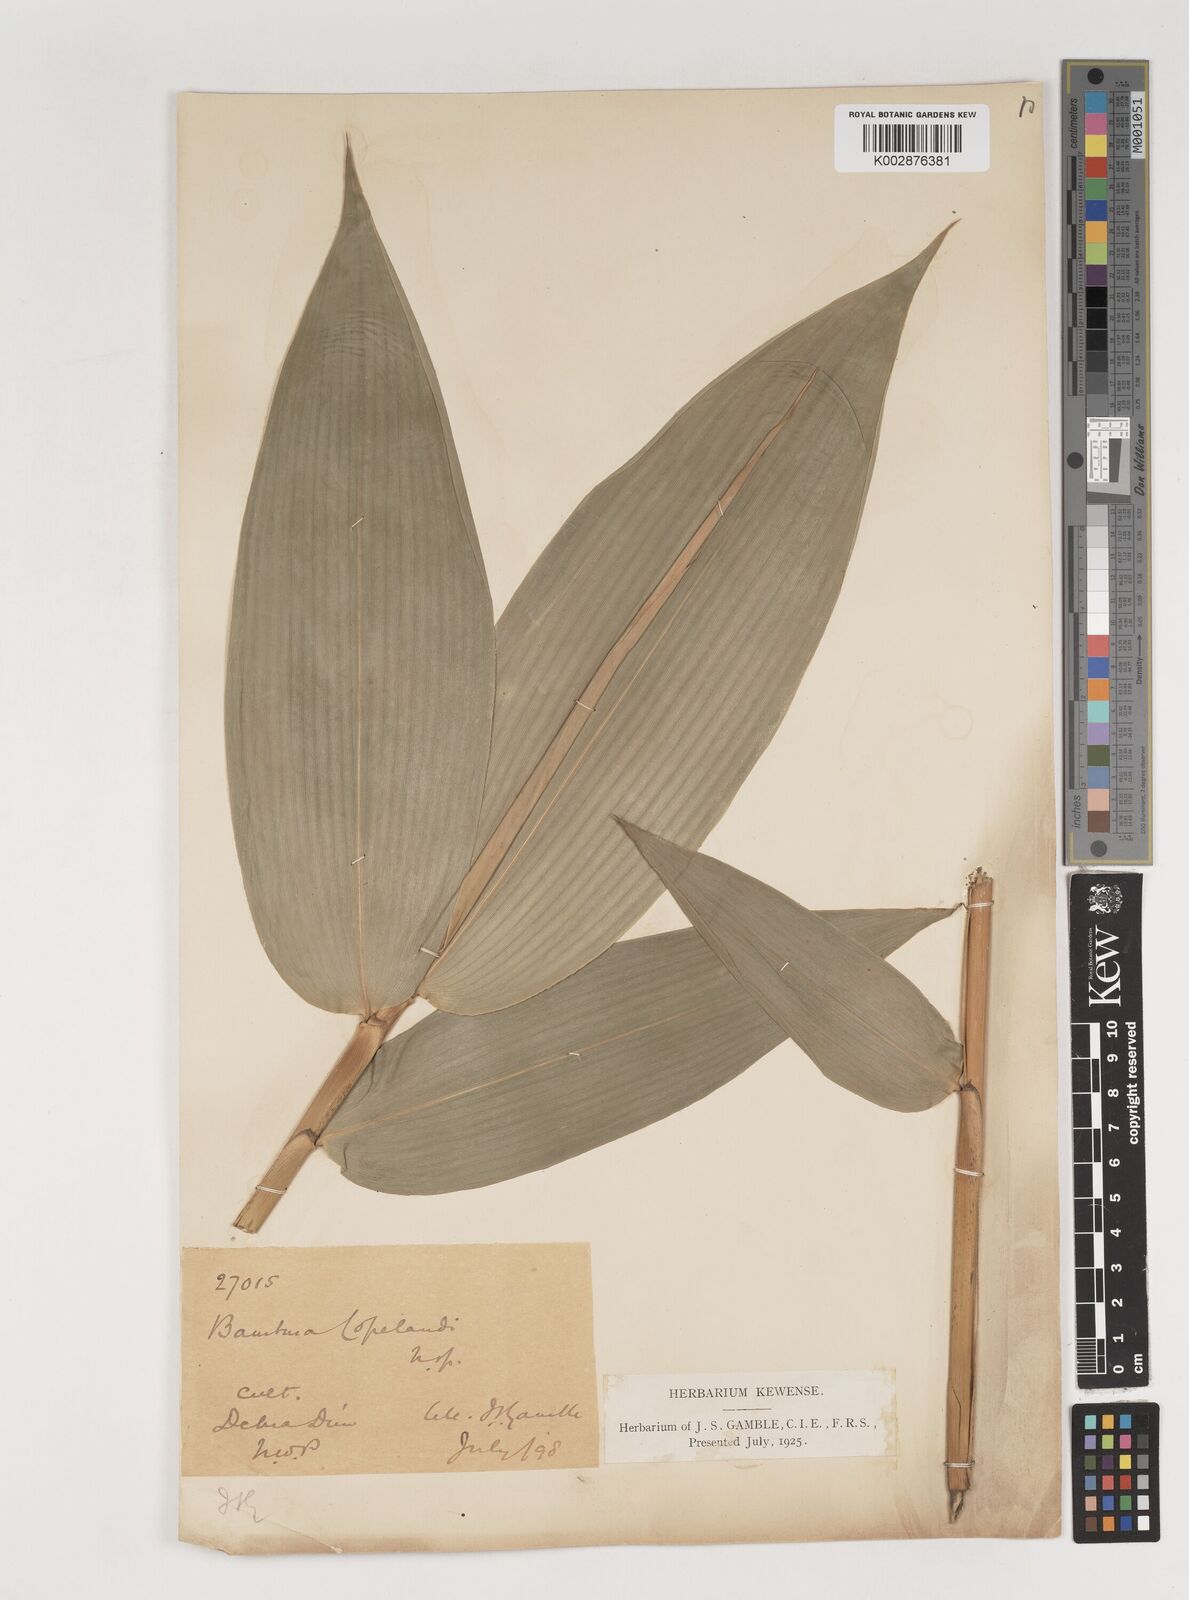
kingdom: Plantae
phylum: Tracheophyta
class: Liliopsida
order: Poales
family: Poaceae
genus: Bambusa
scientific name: Bambusa copelandii
